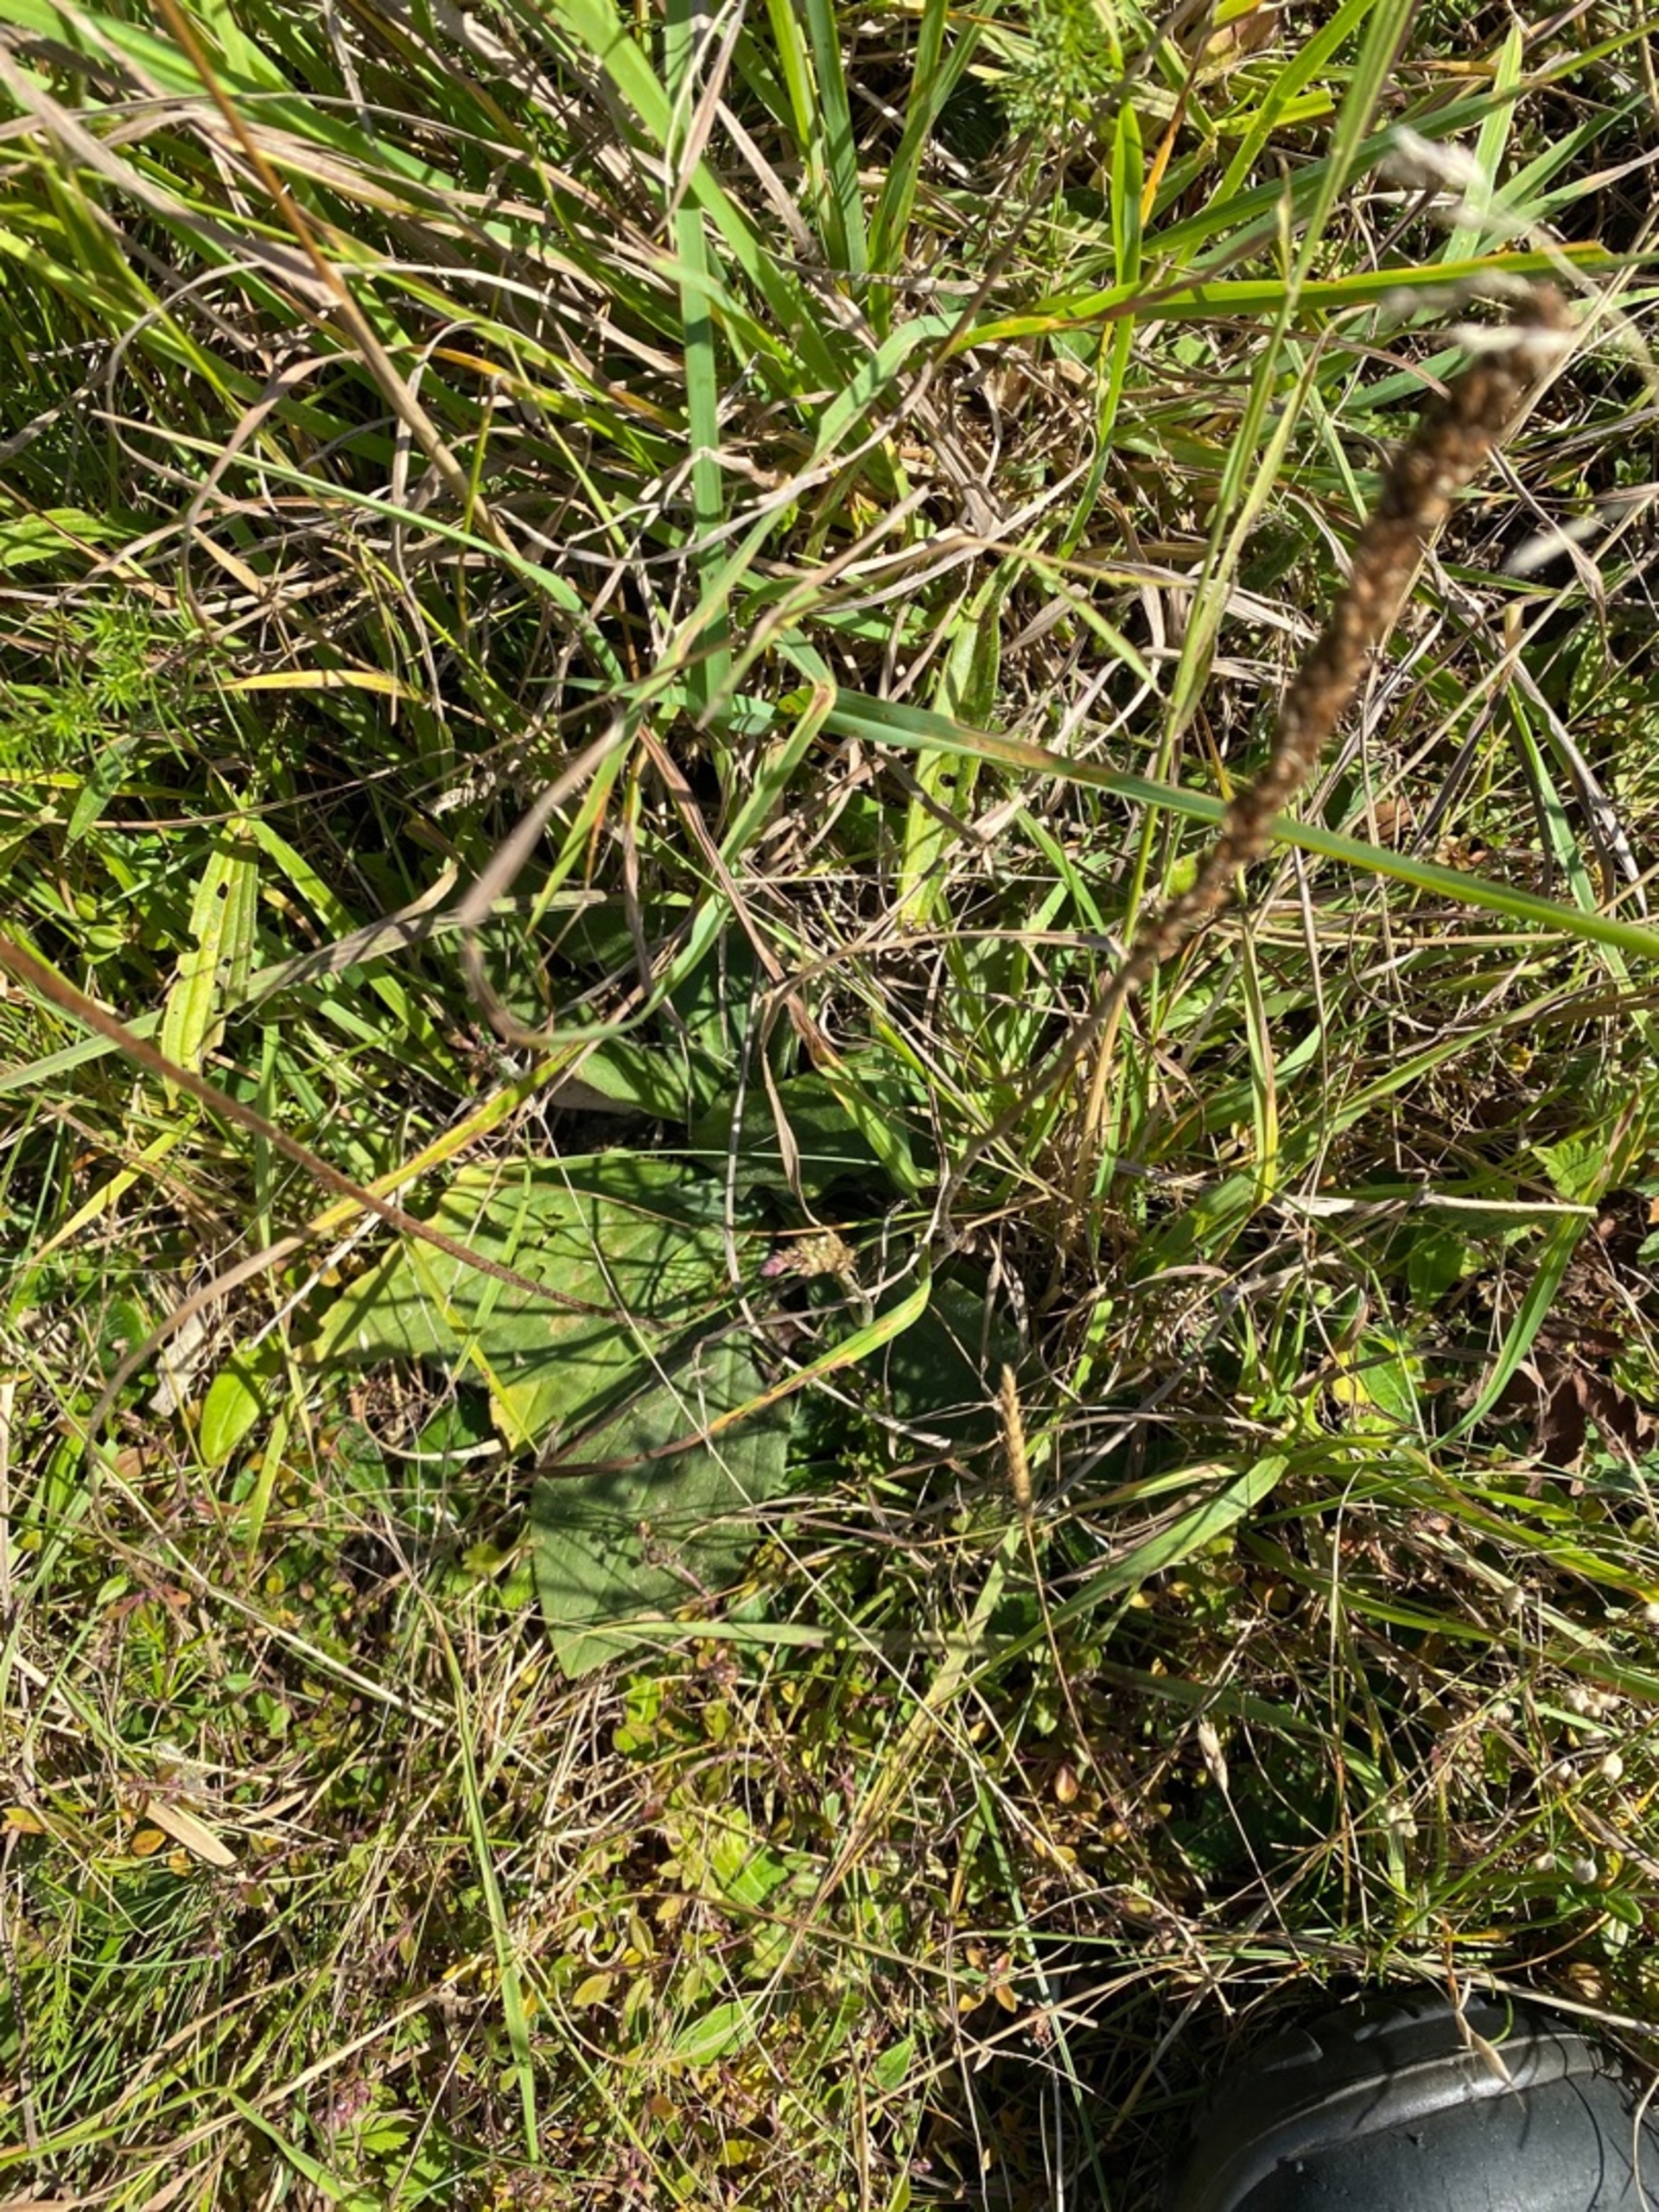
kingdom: Plantae
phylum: Tracheophyta
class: Magnoliopsida
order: Lamiales
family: Plantaginaceae
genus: Plantago
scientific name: Plantago media
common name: Dunet vejbred
